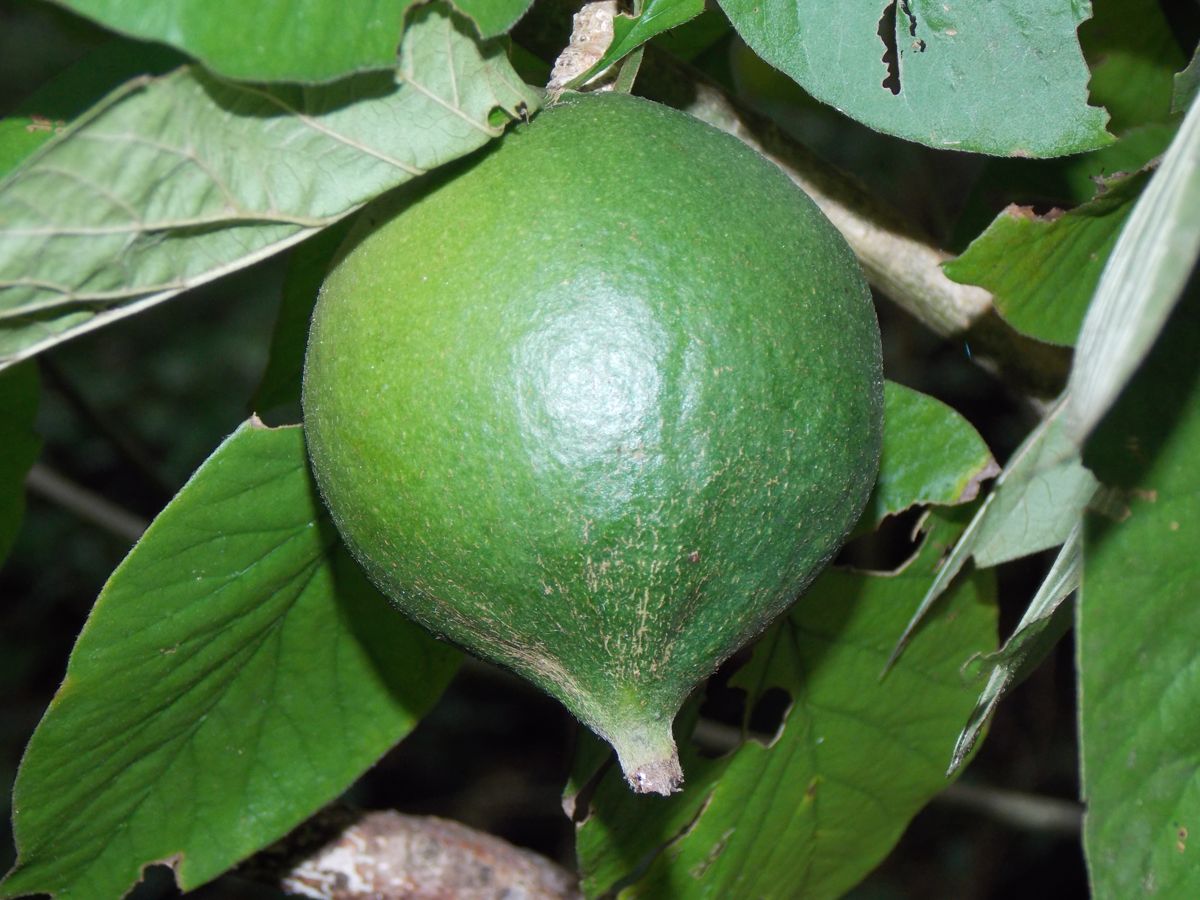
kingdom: Plantae
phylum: Tracheophyta
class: Magnoliopsida
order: Gentianales
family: Rubiaceae
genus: Randia
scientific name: Randia monantha
